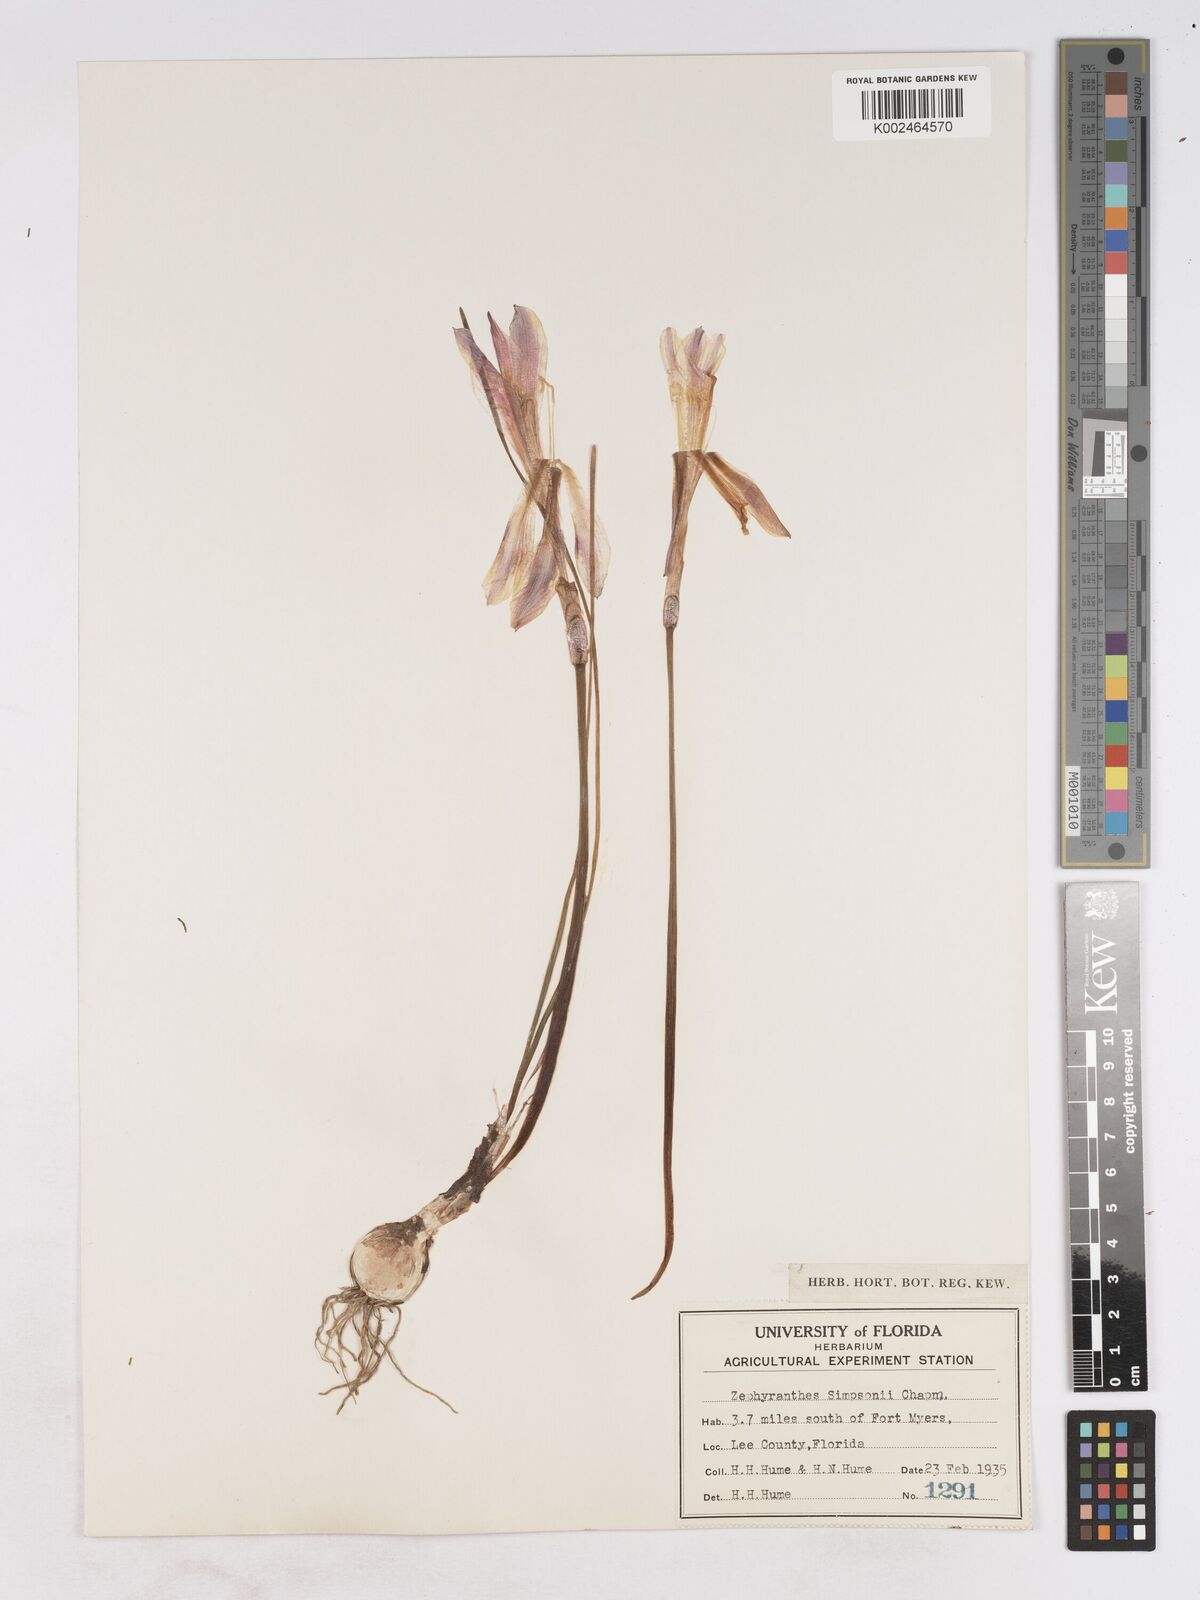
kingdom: Plantae
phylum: Tracheophyta
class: Liliopsida
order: Asparagales
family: Amaryllidaceae
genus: Zephyranthes
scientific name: Zephyranthes simpsonii
